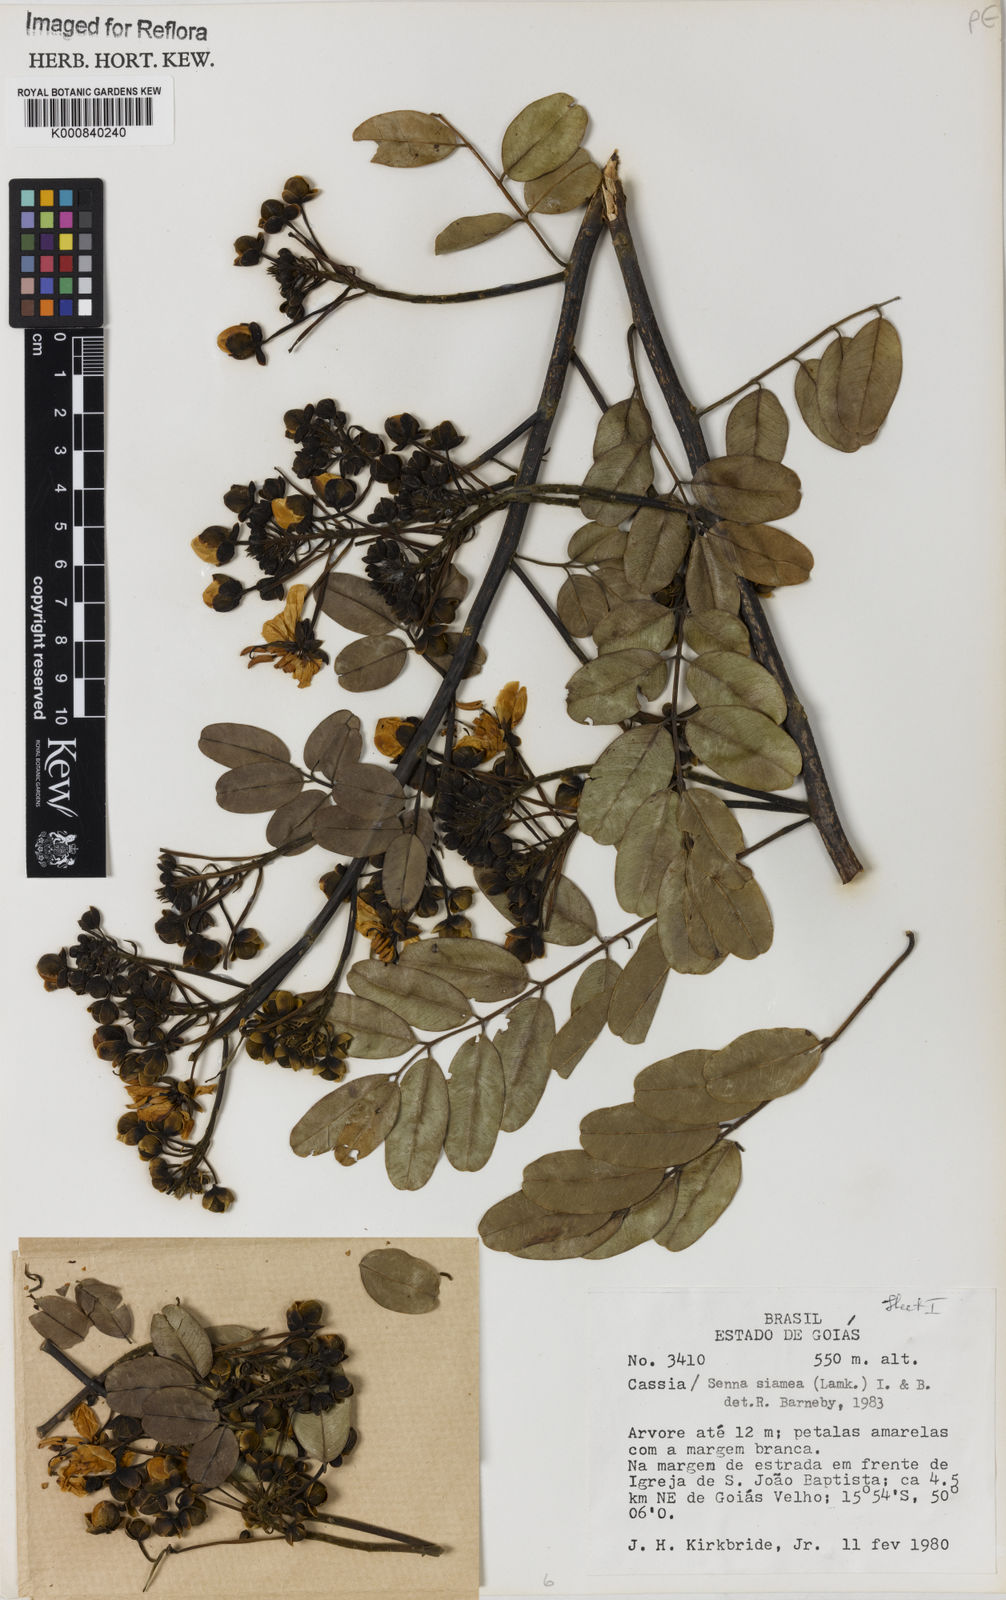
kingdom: Plantae
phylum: Tracheophyta
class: Magnoliopsida
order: Fabales
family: Fabaceae
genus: Senna
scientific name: Senna siamea
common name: Siamese cassia
